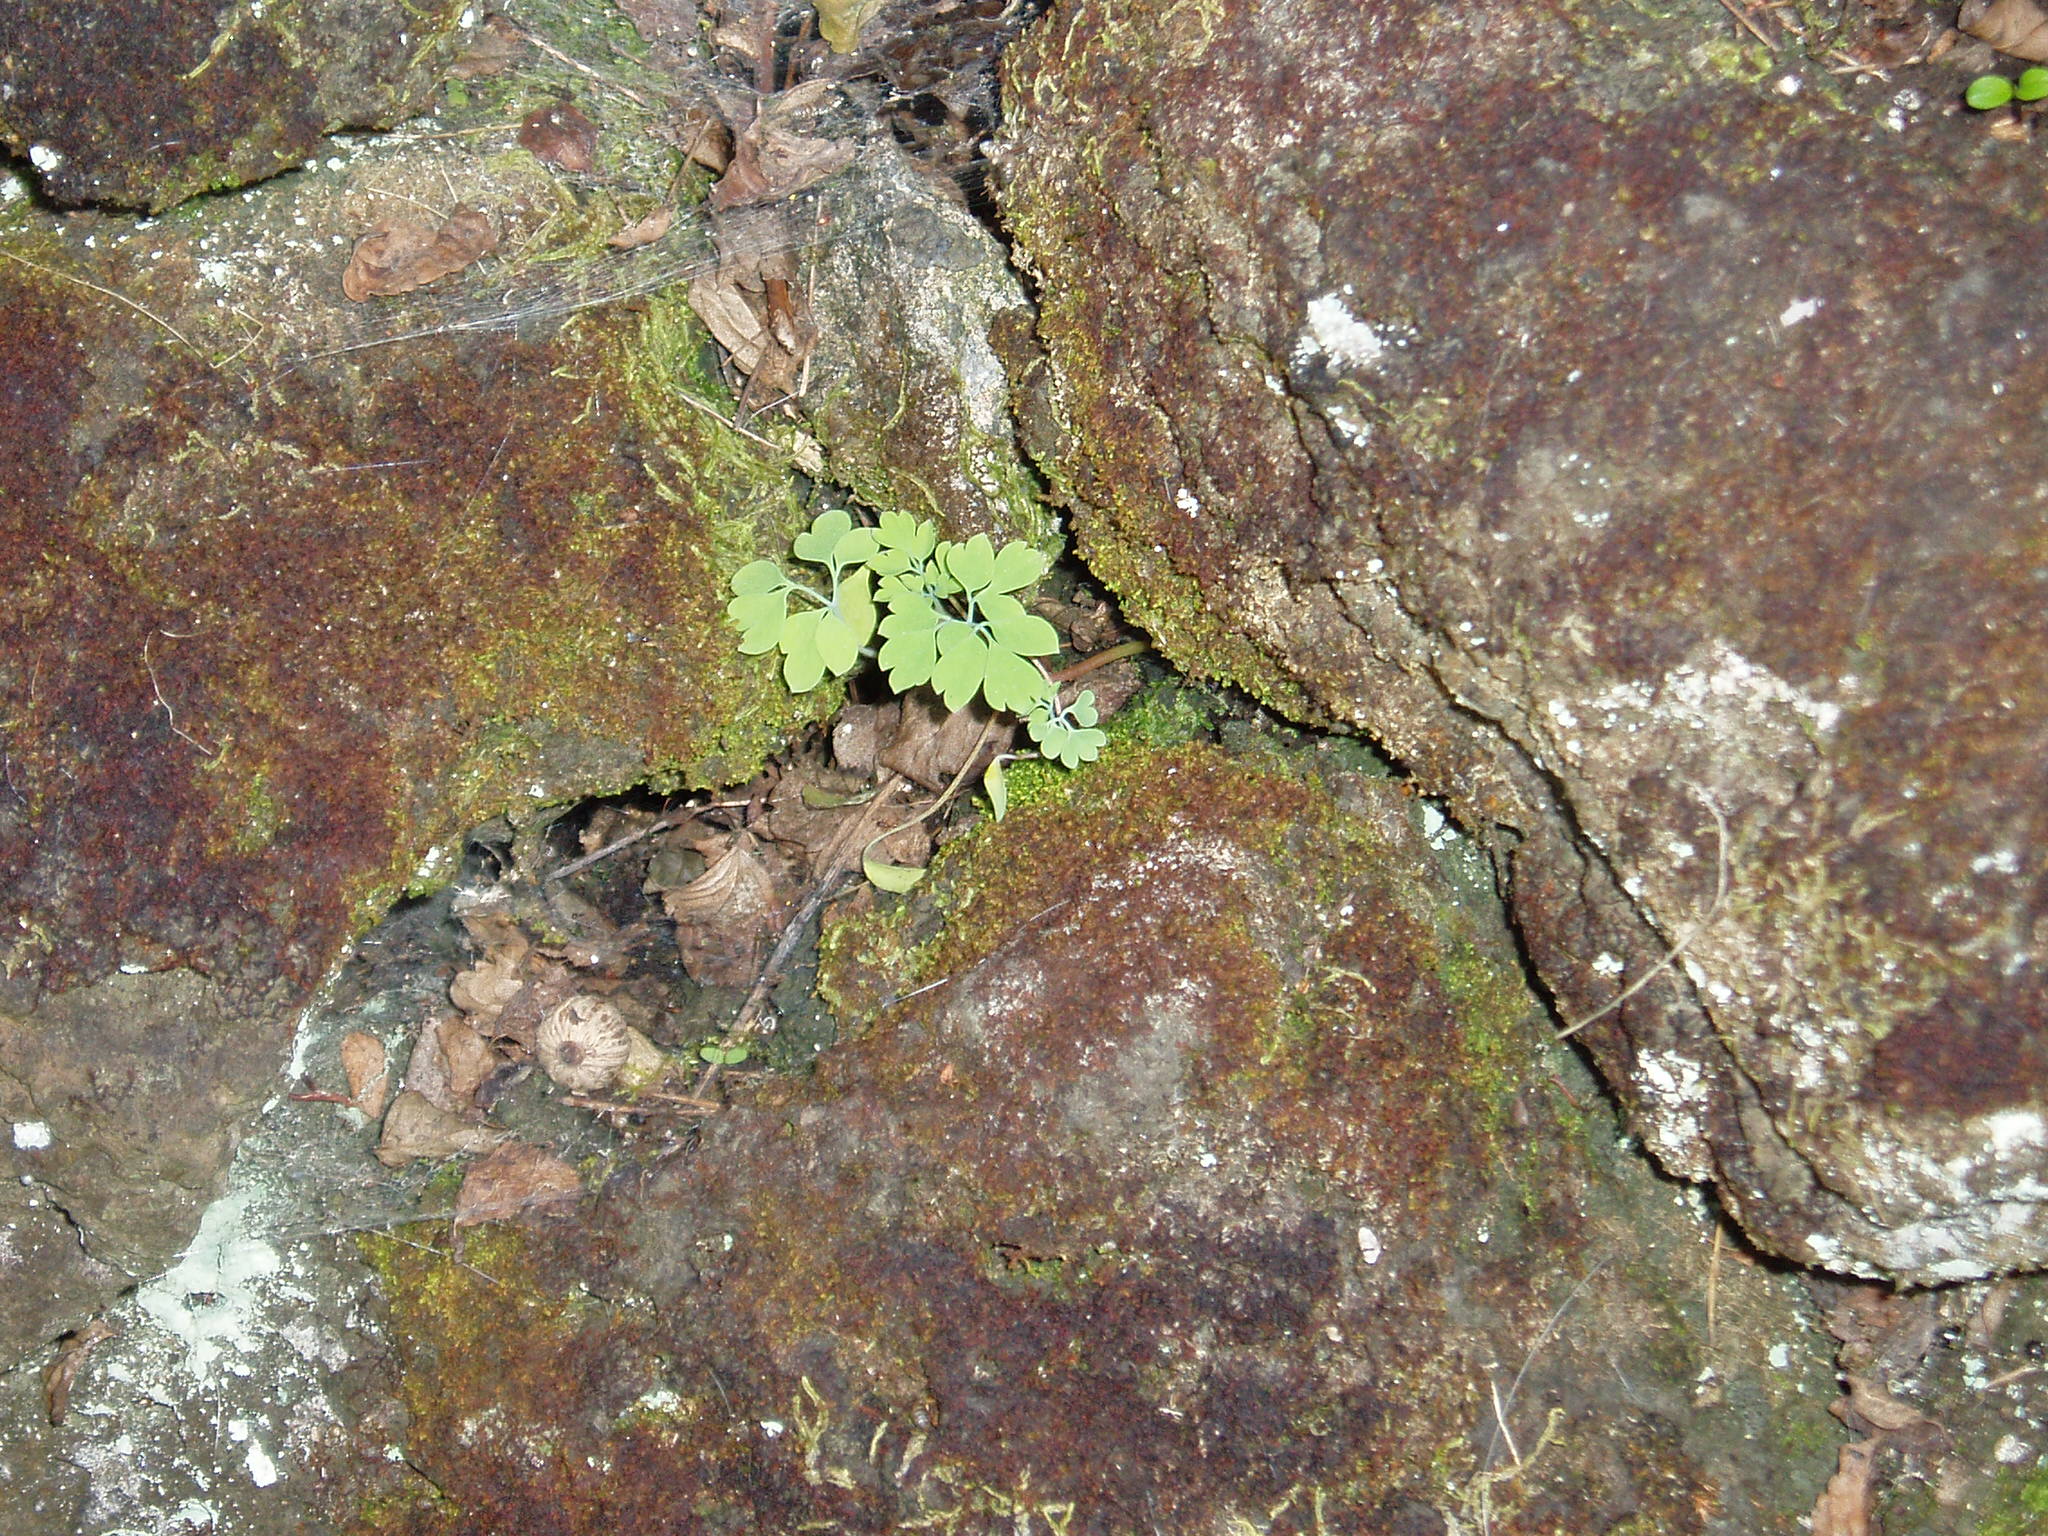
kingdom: Plantae
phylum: Tracheophyta
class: Magnoliopsida
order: Ranunculales
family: Papaveraceae
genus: Pseudofumaria
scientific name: Pseudofumaria alba
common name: Pale corydalis
